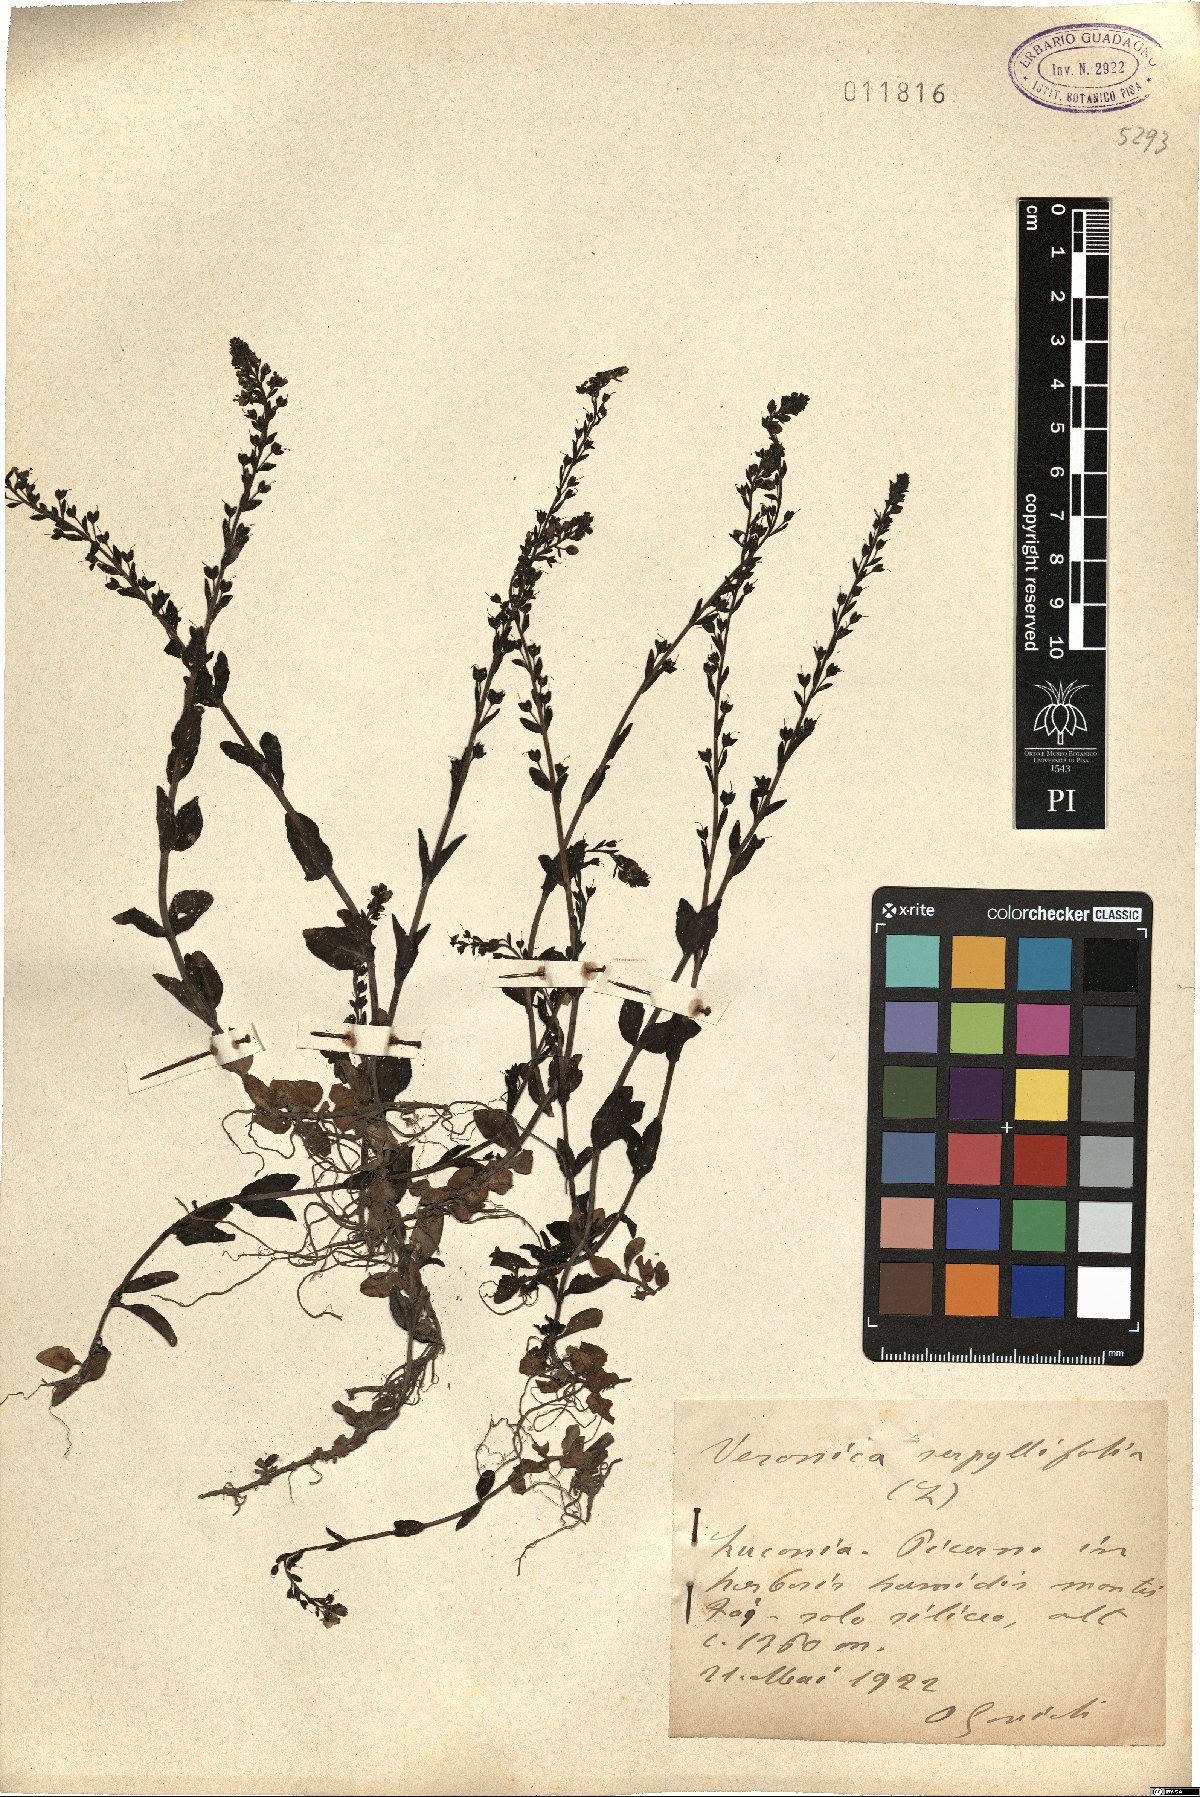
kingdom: Plantae
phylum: Tracheophyta
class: Magnoliopsida
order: Lamiales
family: Plantaginaceae
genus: Veronica
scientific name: Veronica serpyllifolia
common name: Thyme-leaved speedwell
